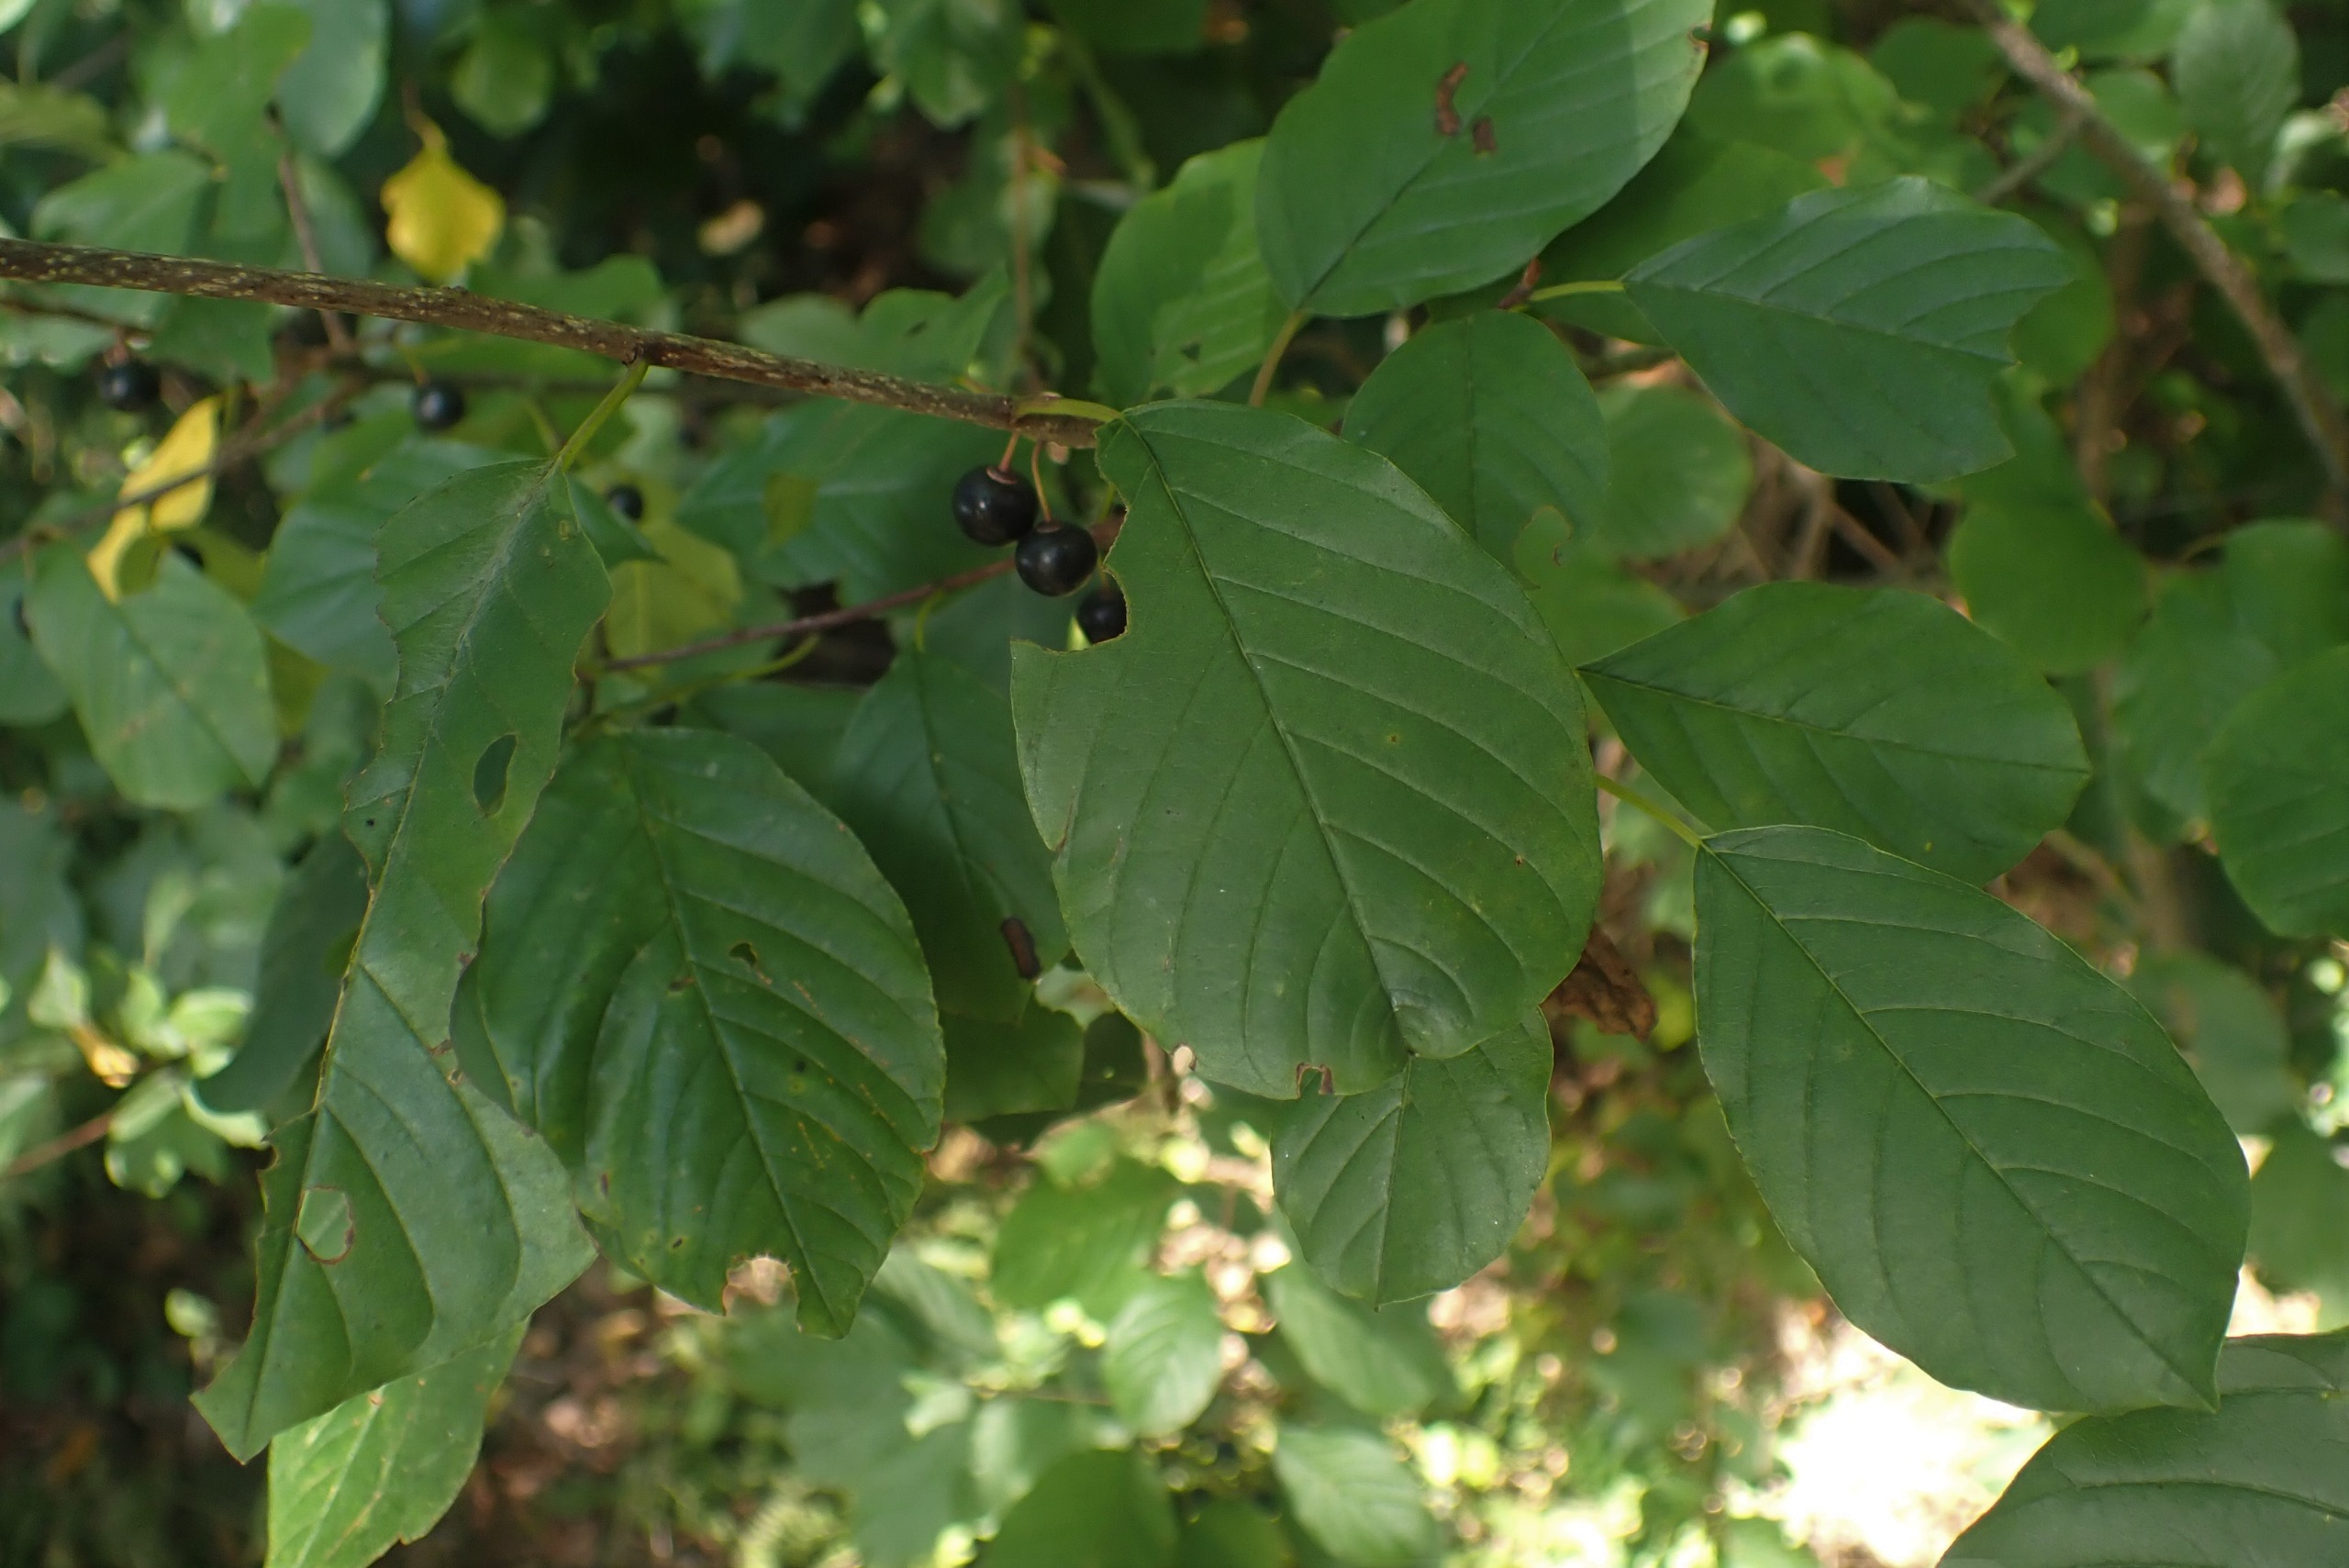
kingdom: Plantae
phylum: Tracheophyta
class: Magnoliopsida
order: Rosales
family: Rhamnaceae
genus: Frangula
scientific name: Frangula alnus
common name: Tørst
